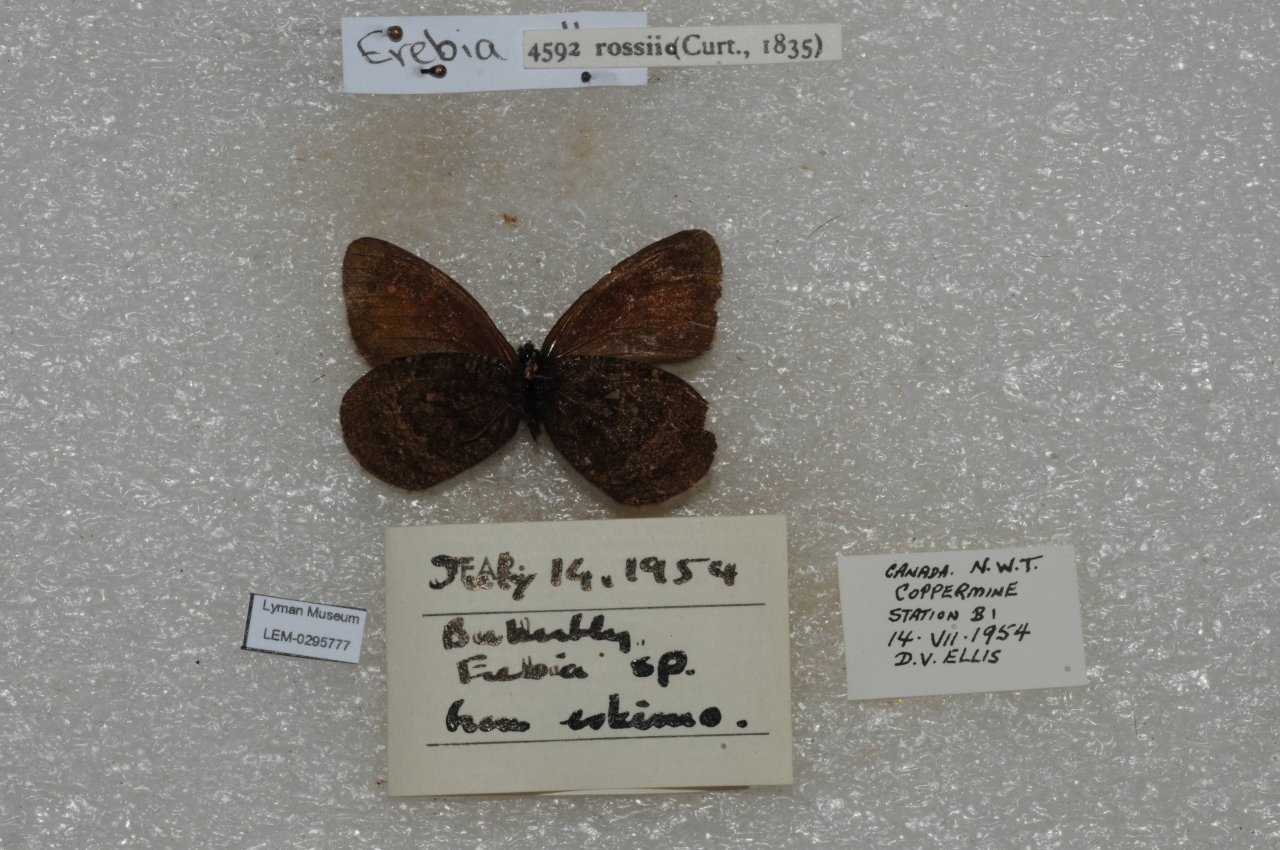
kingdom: Animalia
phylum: Arthropoda
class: Insecta
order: Lepidoptera
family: Nymphalidae
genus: Erebia
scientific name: Erebia rossii
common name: Ross's Alpine
